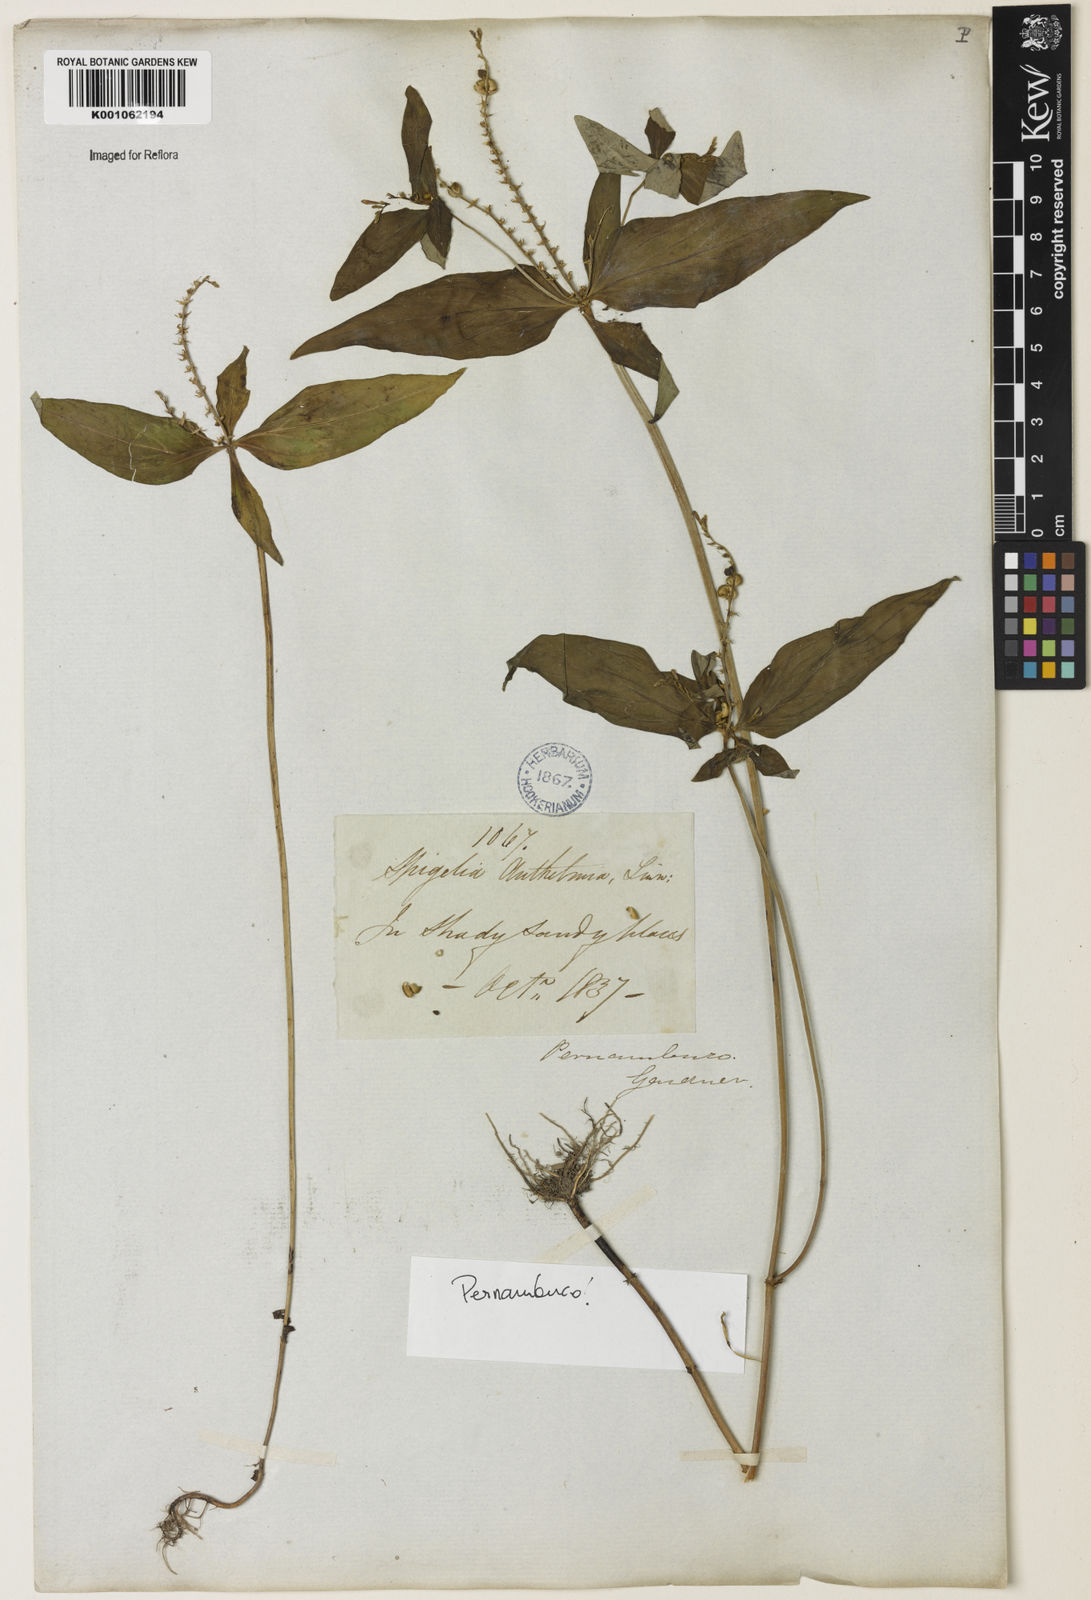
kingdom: Plantae
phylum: Tracheophyta
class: Magnoliopsida
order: Gentianales
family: Loganiaceae
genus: Spigelia
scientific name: Spigelia anthelmia
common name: West indian-pink
